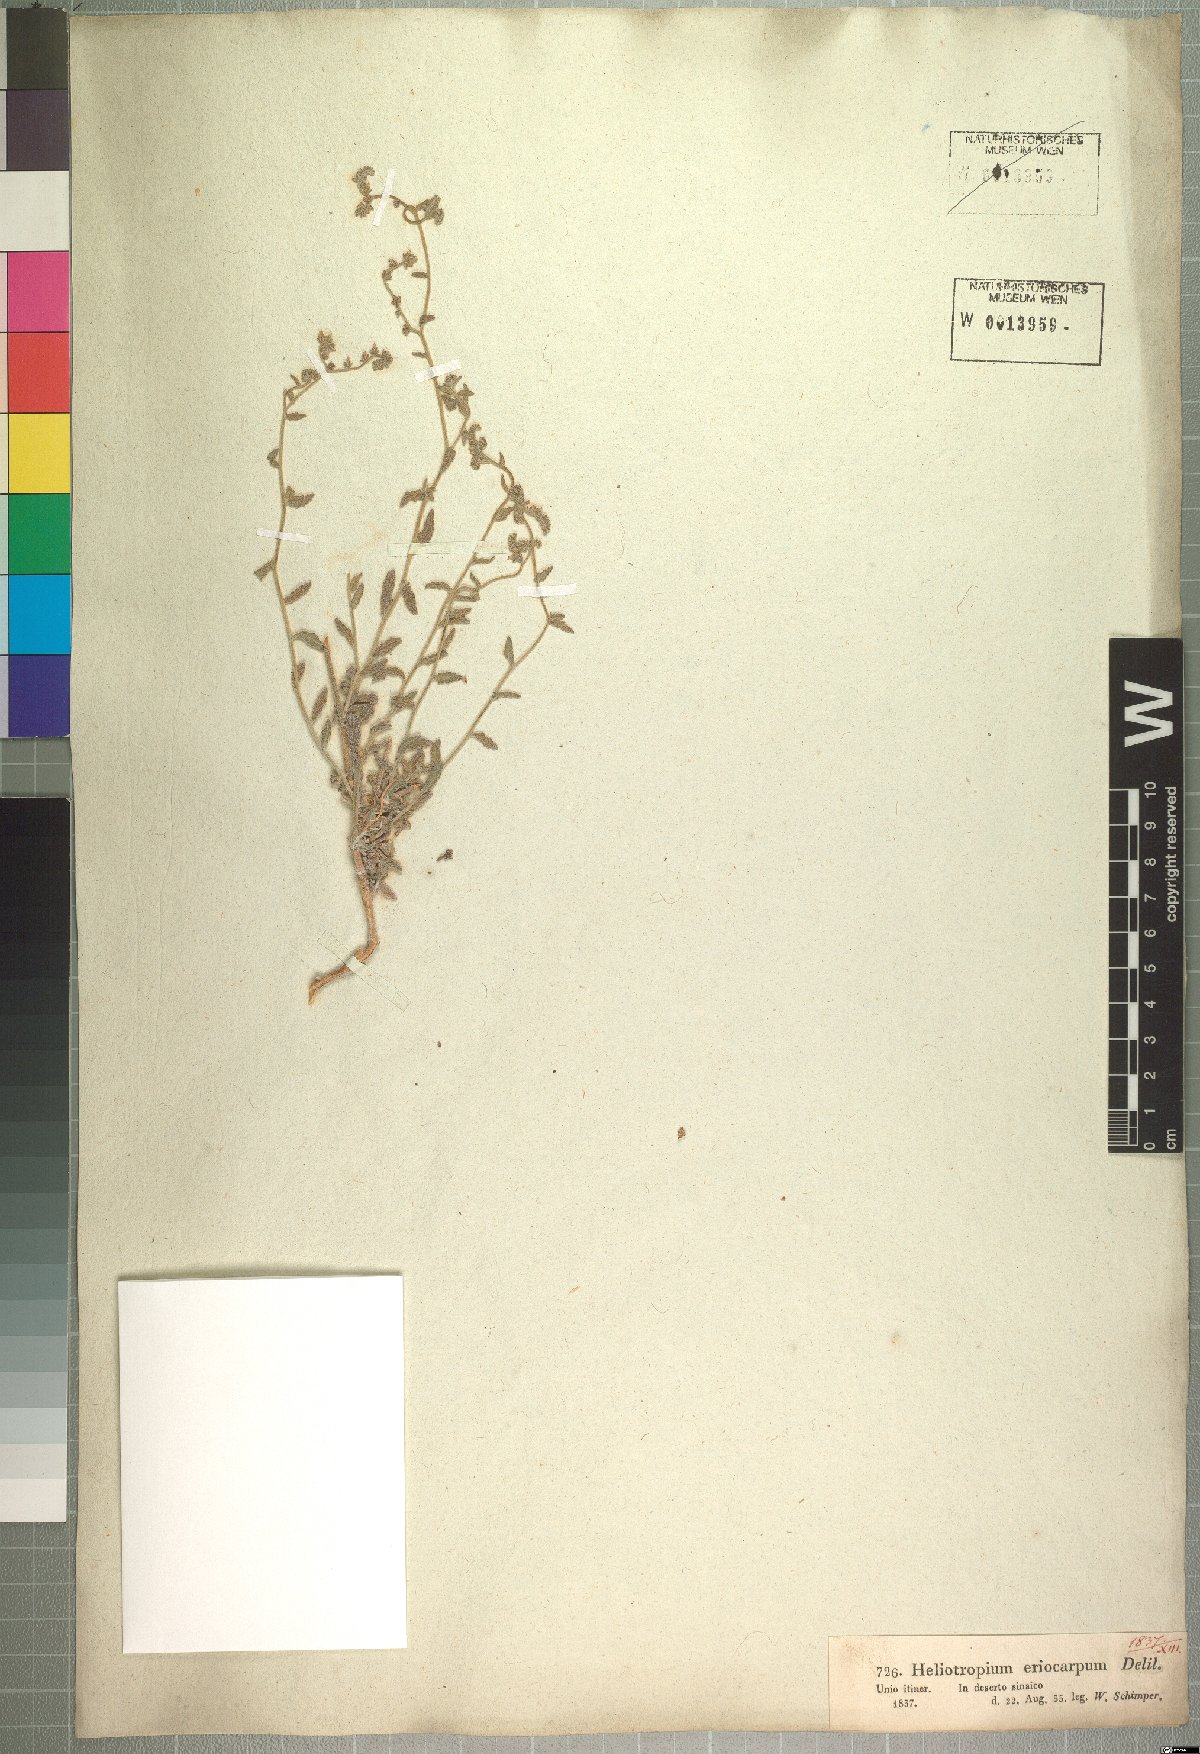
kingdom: Plantae
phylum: Tracheophyta
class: Magnoliopsida
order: Boraginales
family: Heliotropiaceae
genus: Heliotropium
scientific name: Heliotropium ramosissimum
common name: Wavy heliotrope
